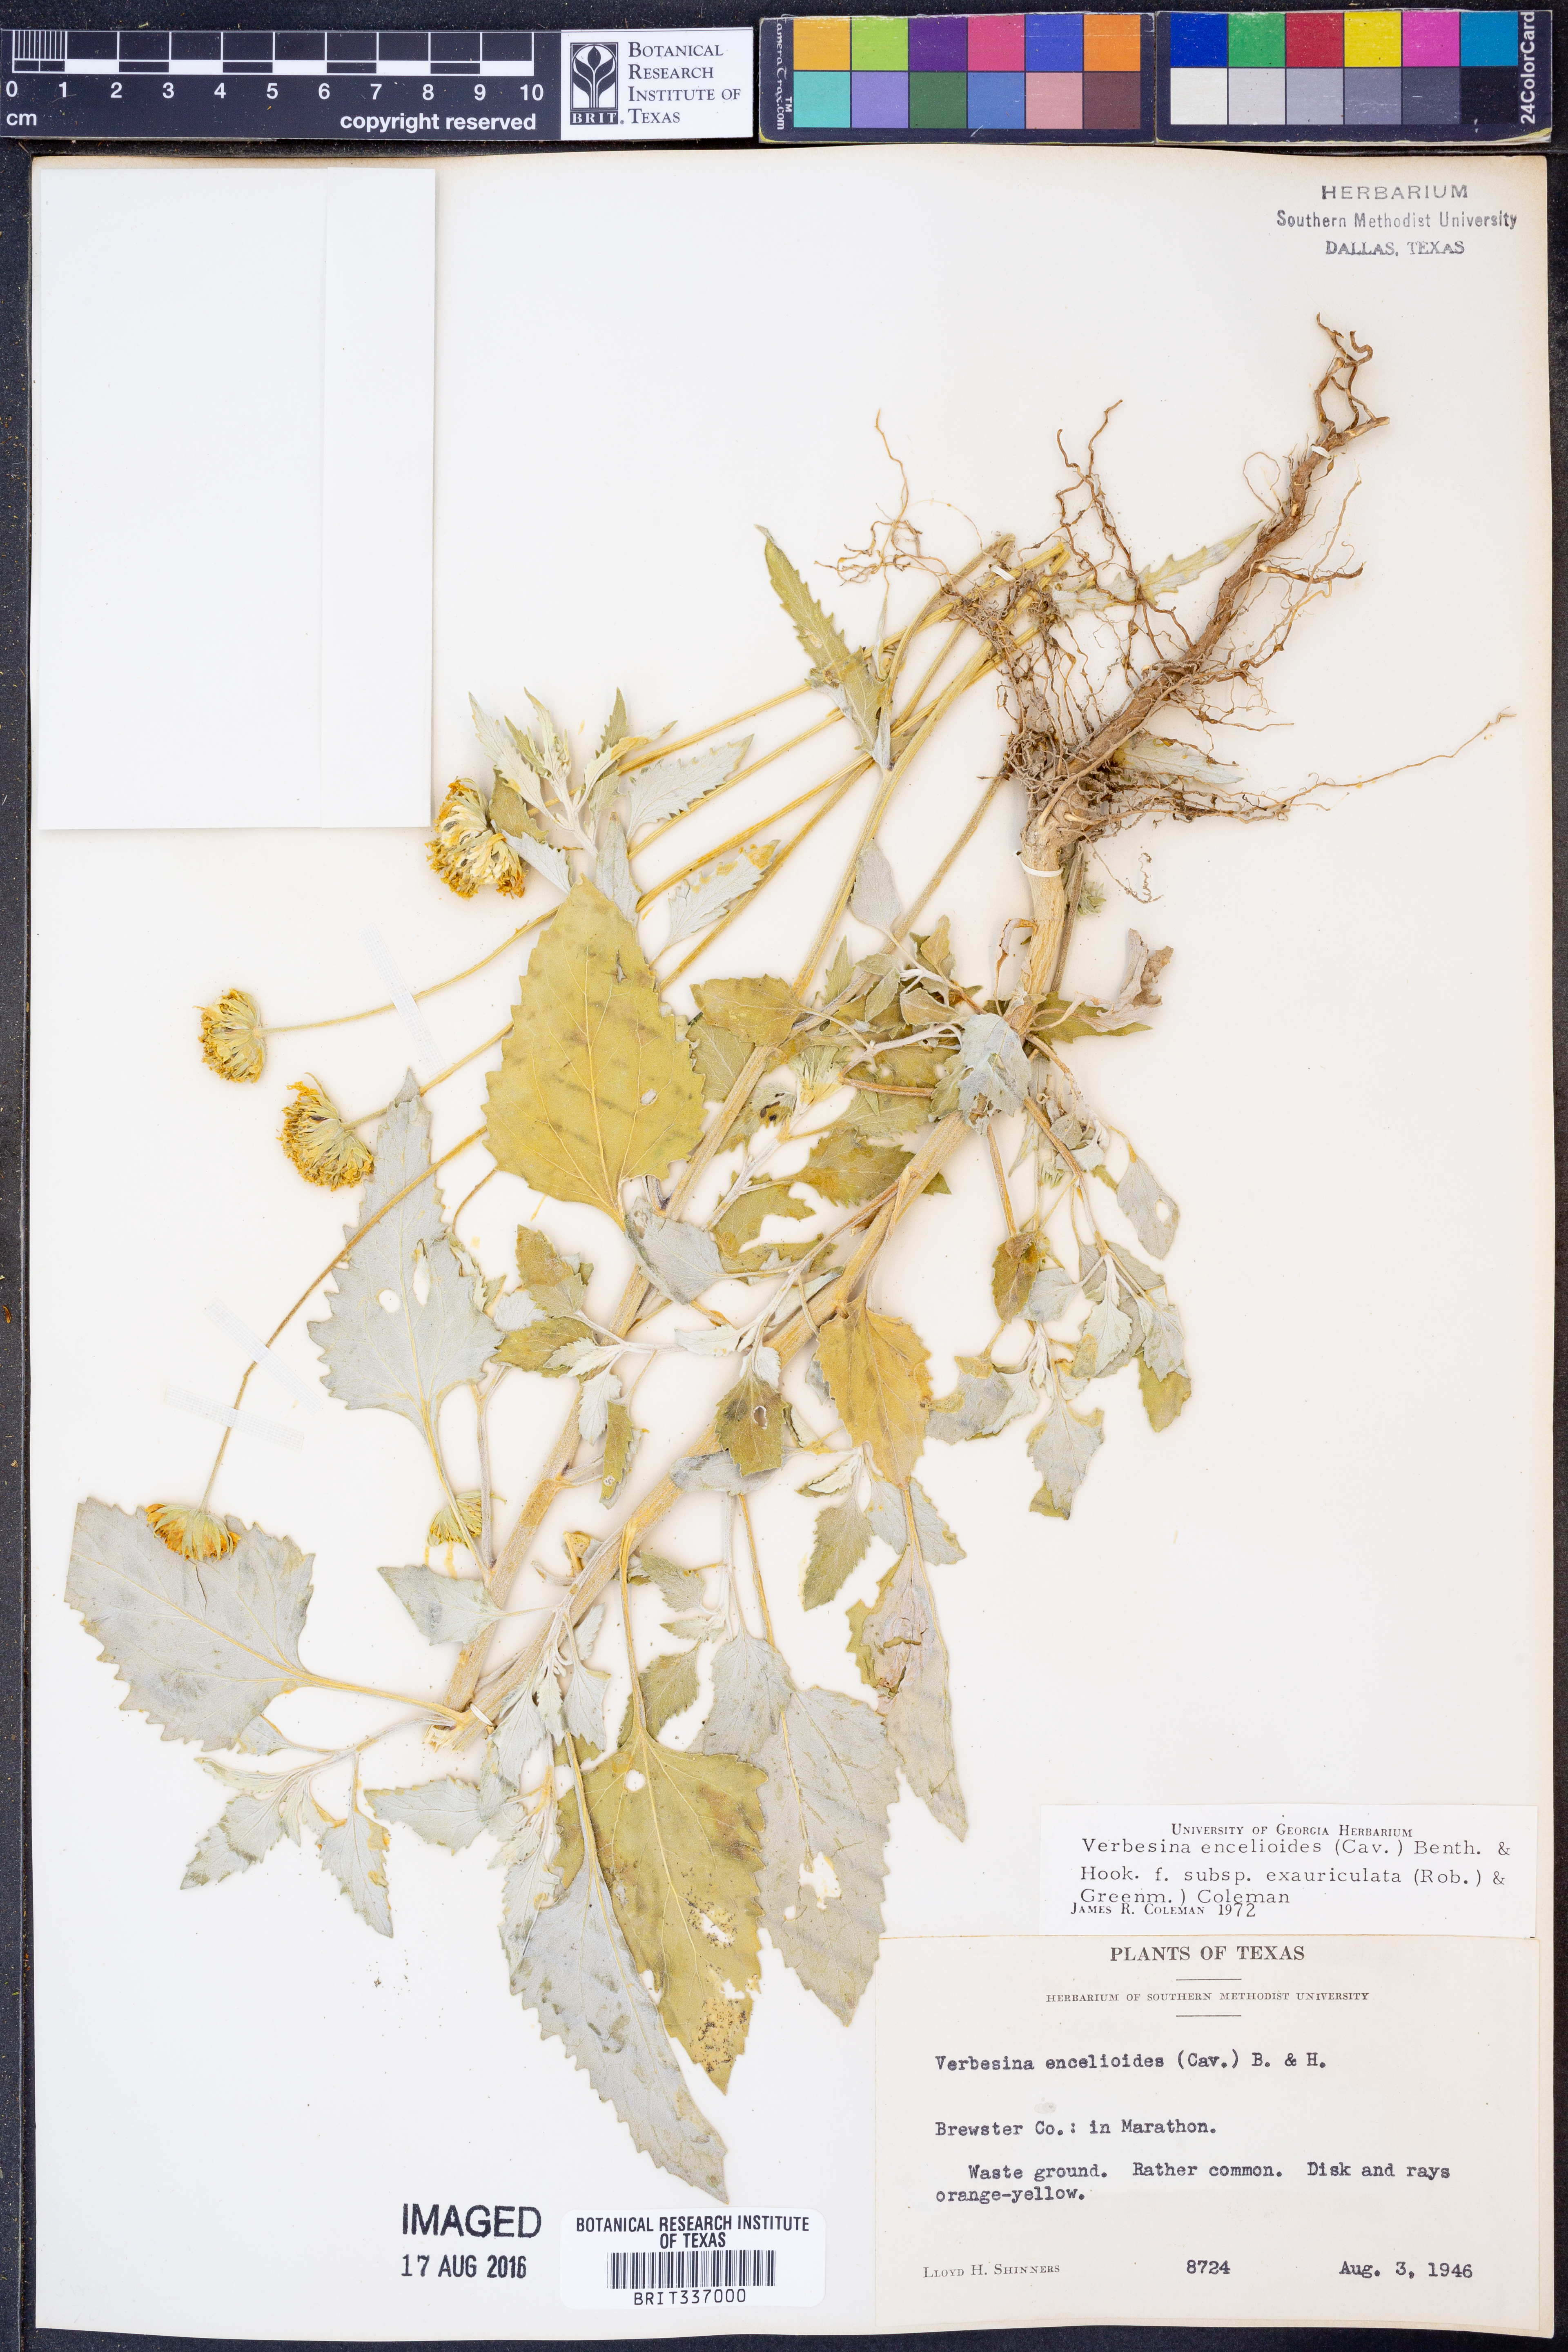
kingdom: Plantae
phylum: Tracheophyta
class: Magnoliopsida
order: Asterales
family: Asteraceae
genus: Verbesina
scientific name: Verbesina encelioides
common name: Golden crownbeard
